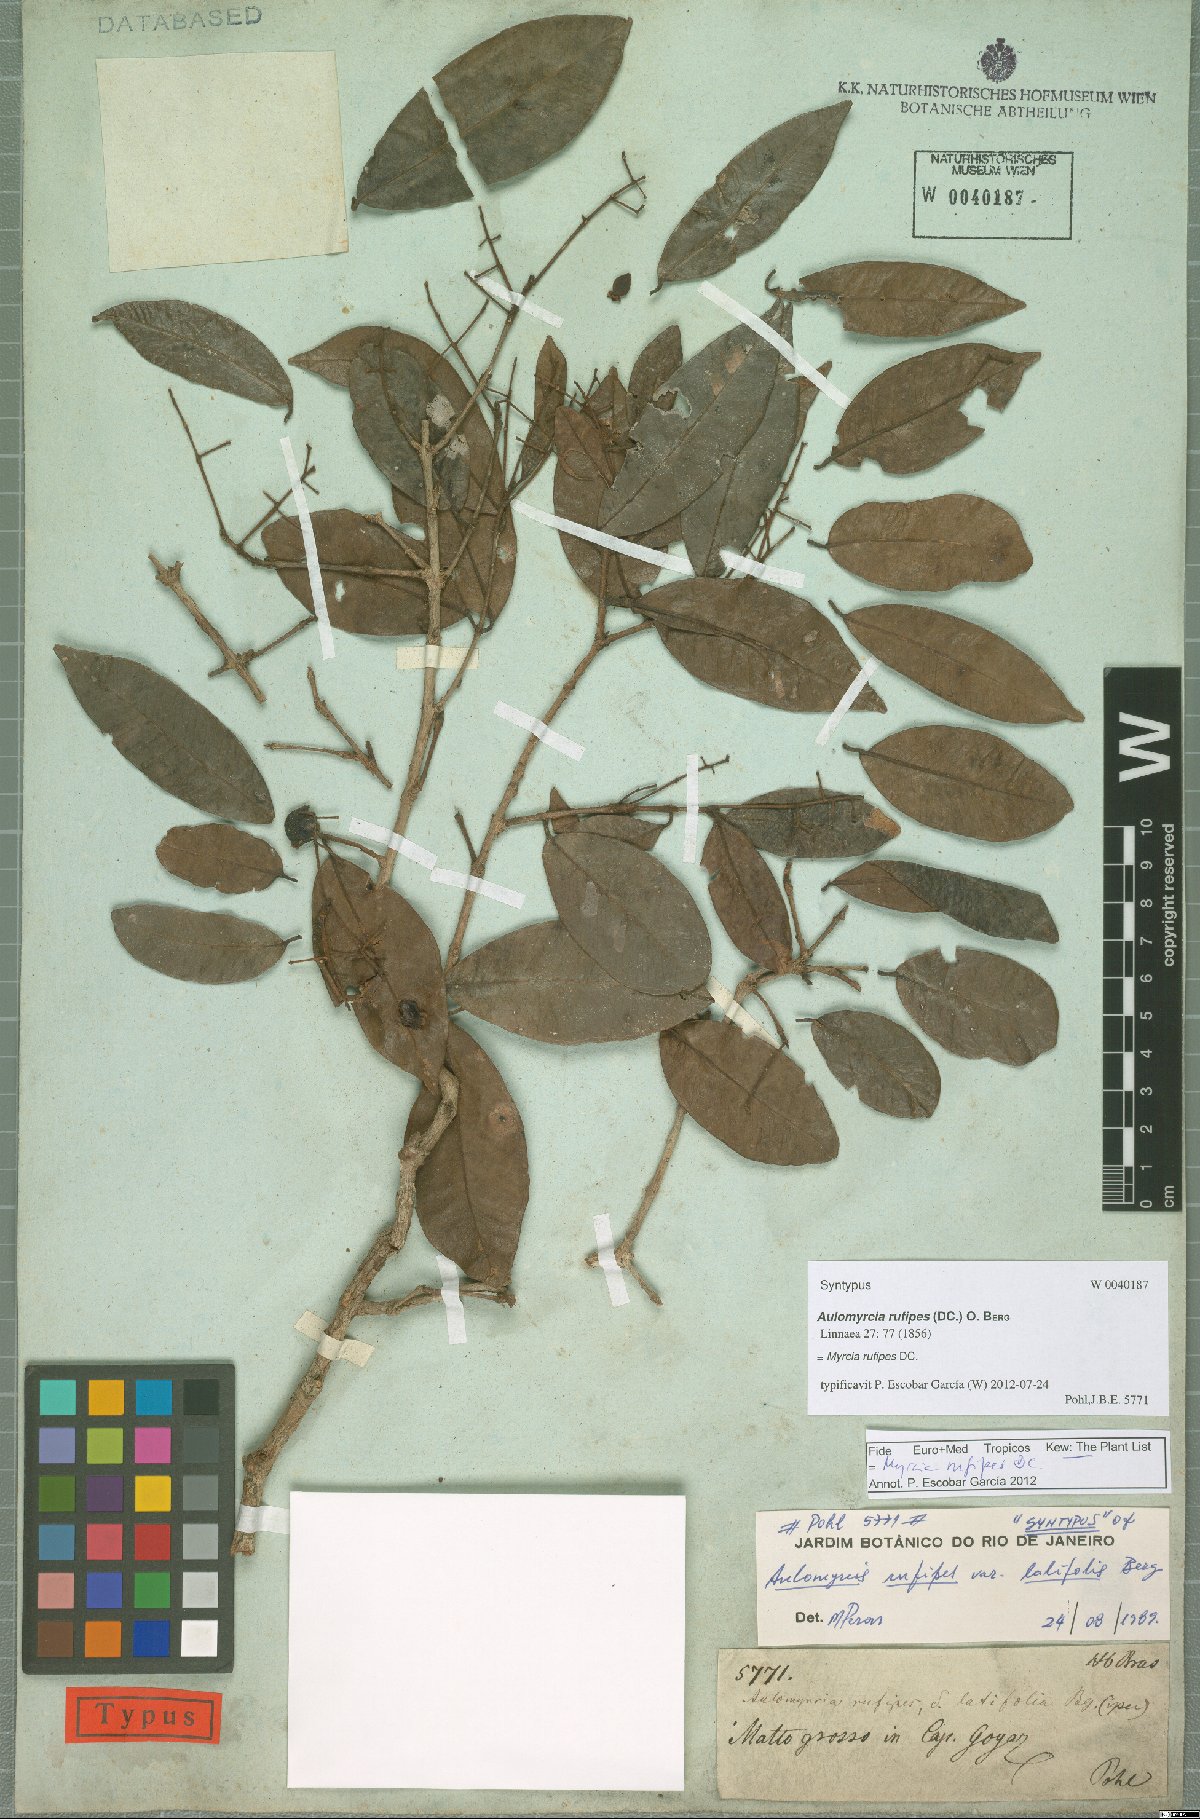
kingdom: Plantae
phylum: Tracheophyta
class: Magnoliopsida
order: Myrtales
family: Myrtaceae
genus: Myrcia
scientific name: Myrcia rufipes
